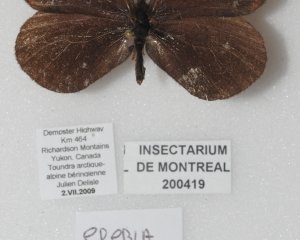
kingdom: Animalia
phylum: Arthropoda
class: Insecta
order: Lepidoptera
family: Nymphalidae
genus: Erebia
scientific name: Erebia youngi
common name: Four-dotted Alpine
